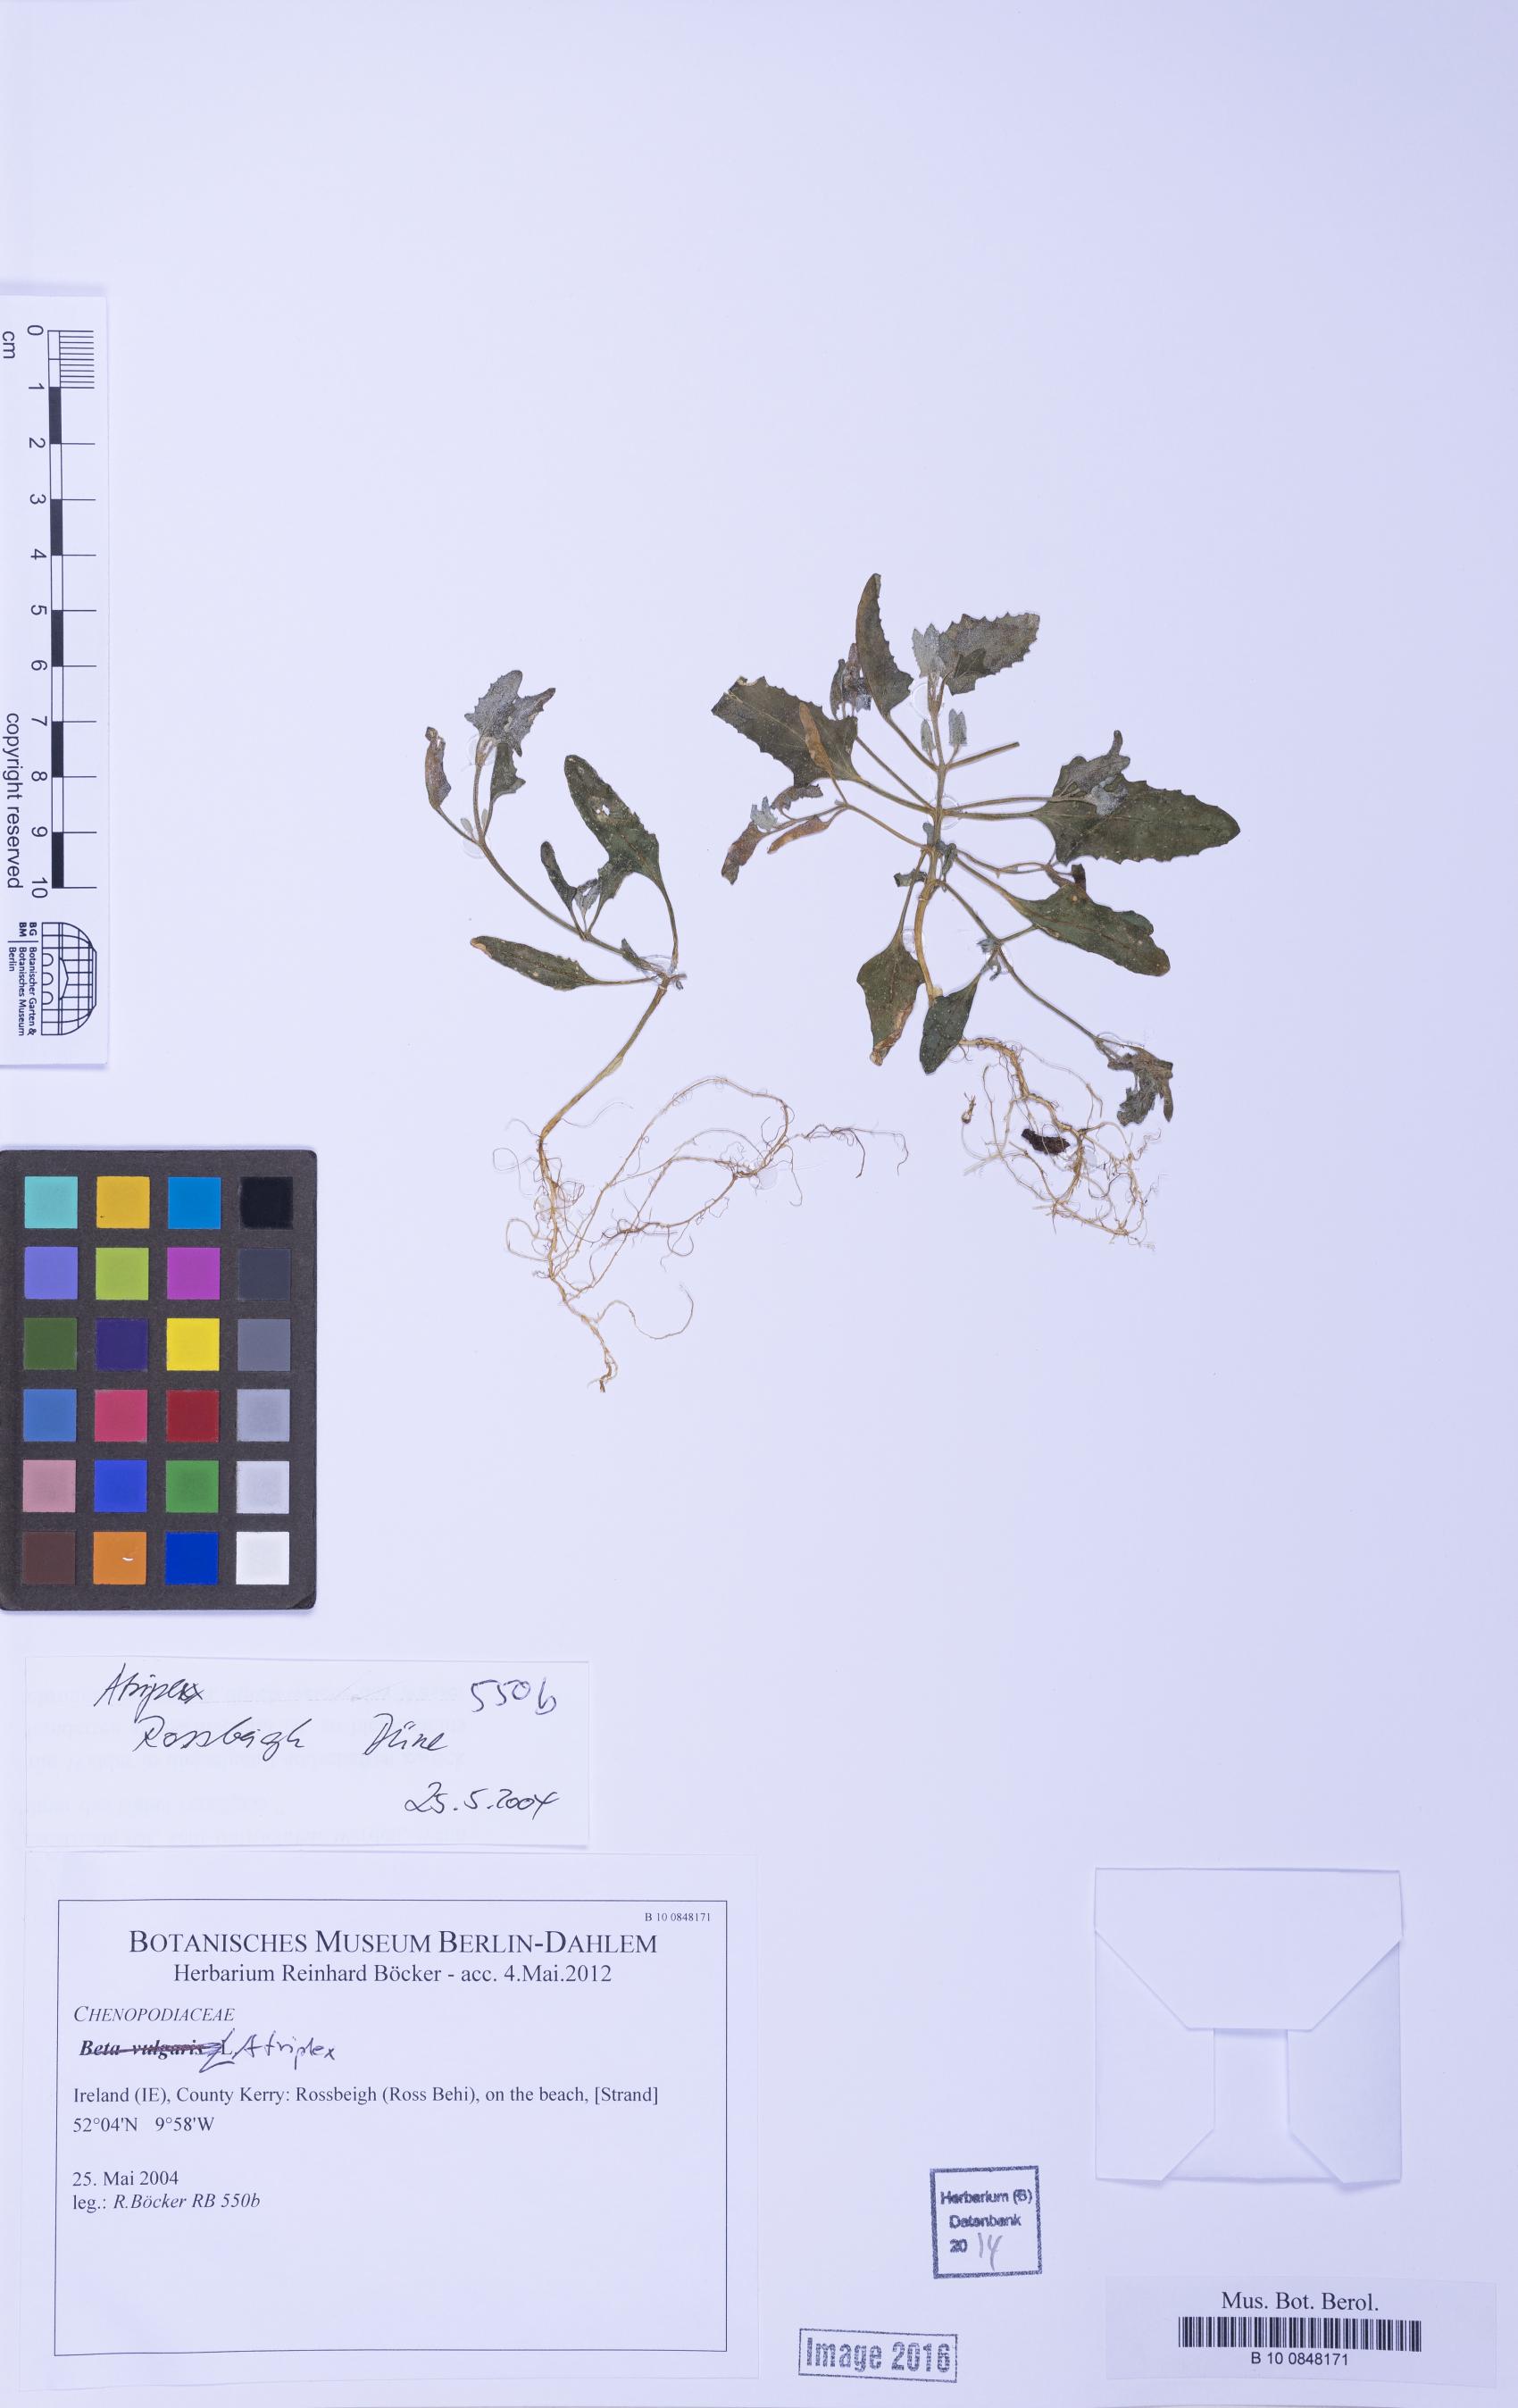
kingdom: Plantae
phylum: Tracheophyta
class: Magnoliopsida
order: Caryophyllales
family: Amaranthaceae
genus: Atriplex
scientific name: Atriplex
